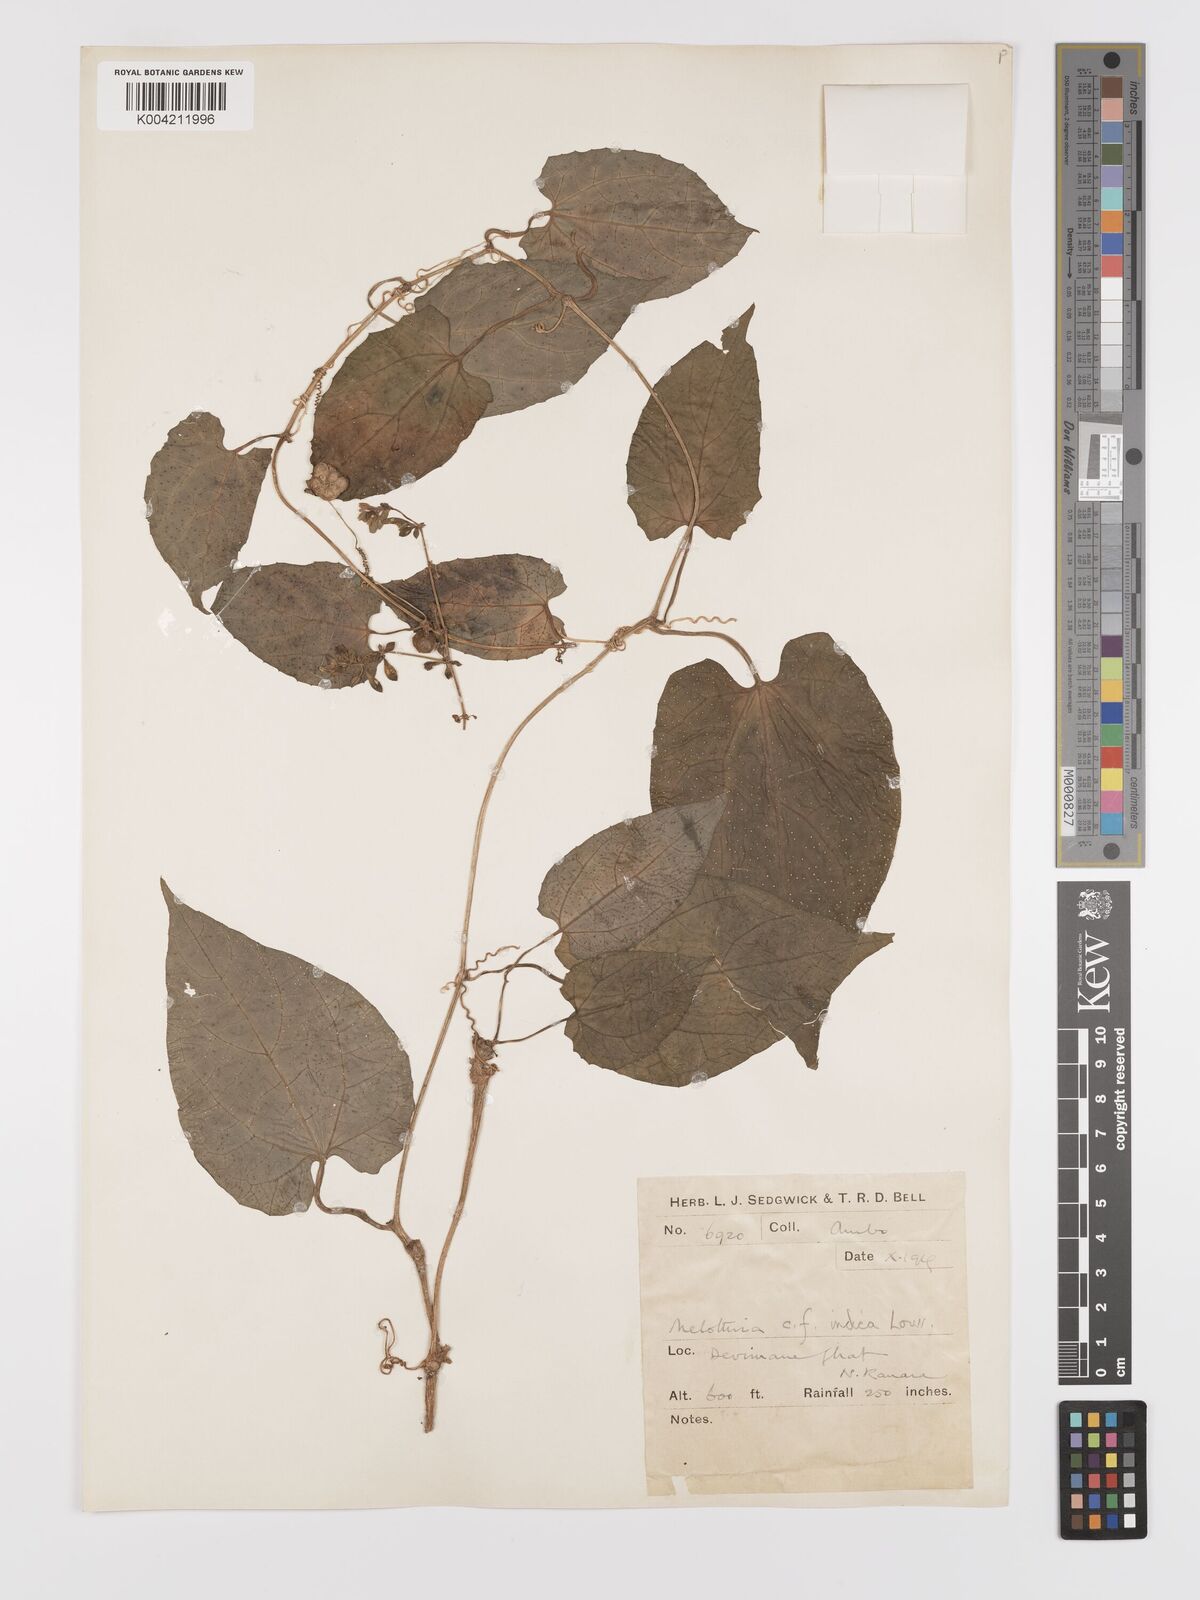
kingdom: Plantae
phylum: Tracheophyta
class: Magnoliopsida
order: Cucurbitales
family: Cucurbitaceae
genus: Kedrostis
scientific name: Kedrostis courtallensis
